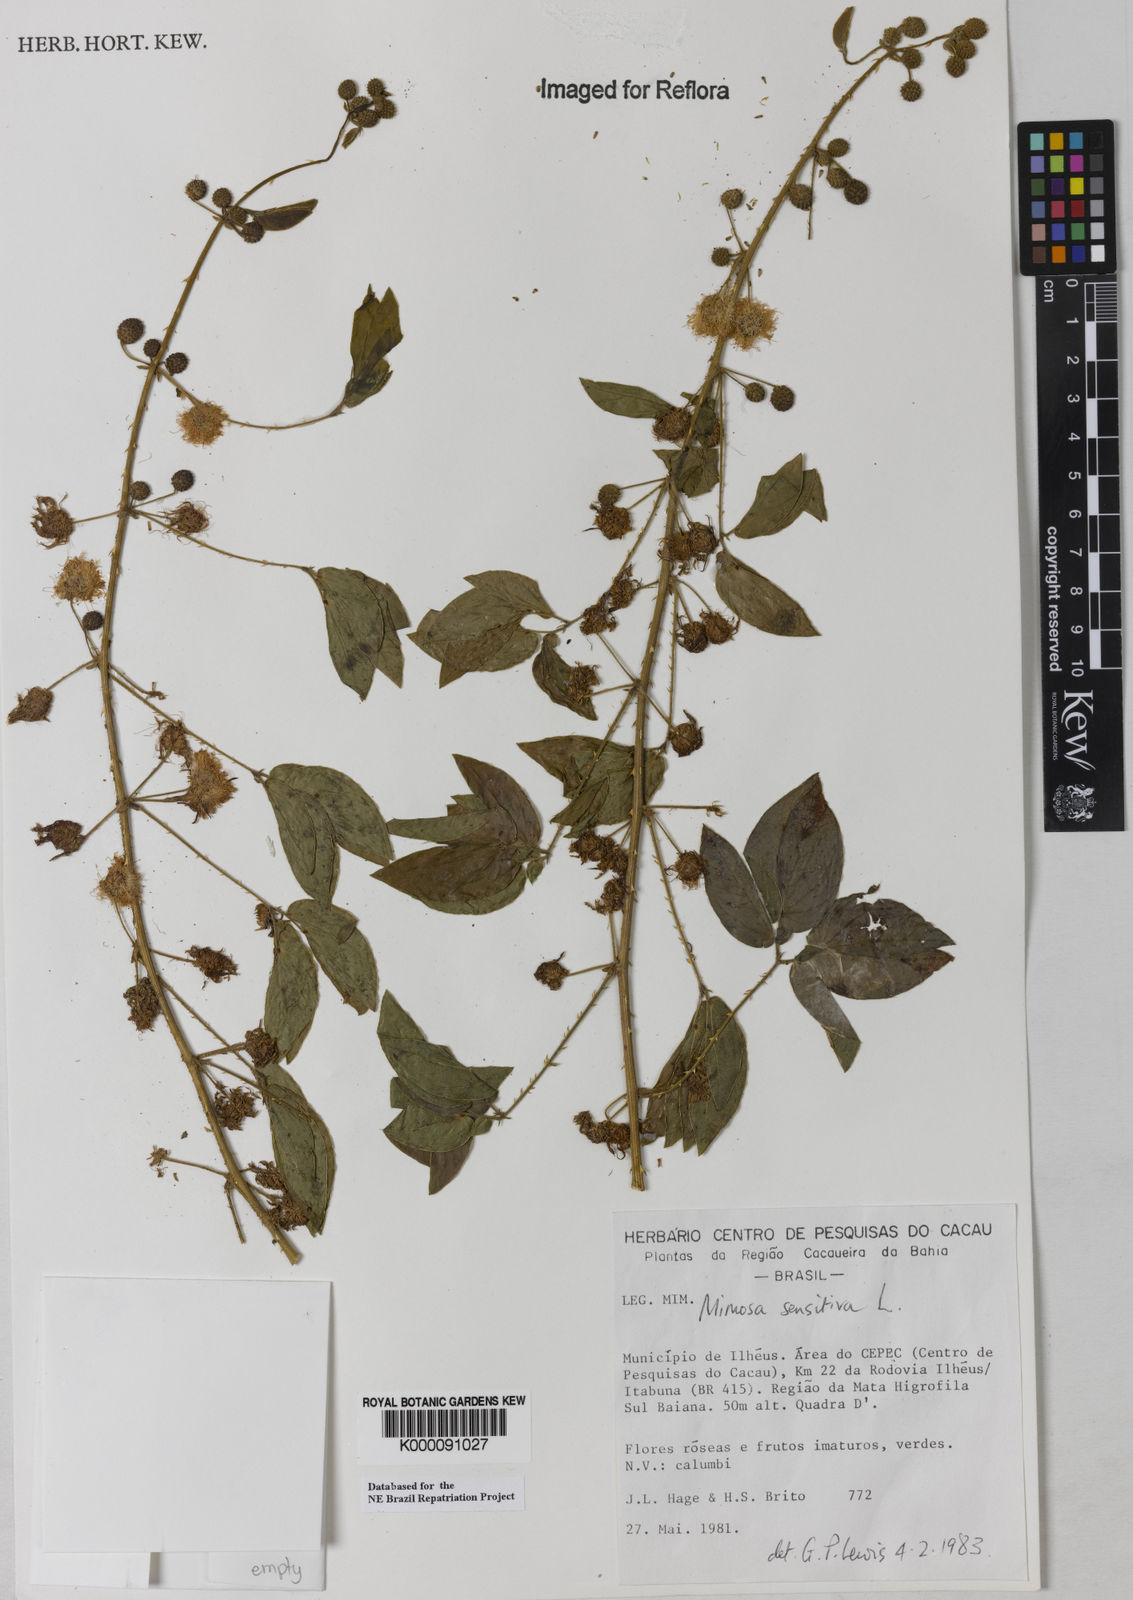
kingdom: Plantae
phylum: Tracheophyta
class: Magnoliopsida
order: Fabales
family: Fabaceae
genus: Mimosa
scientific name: Mimosa sensitiva
